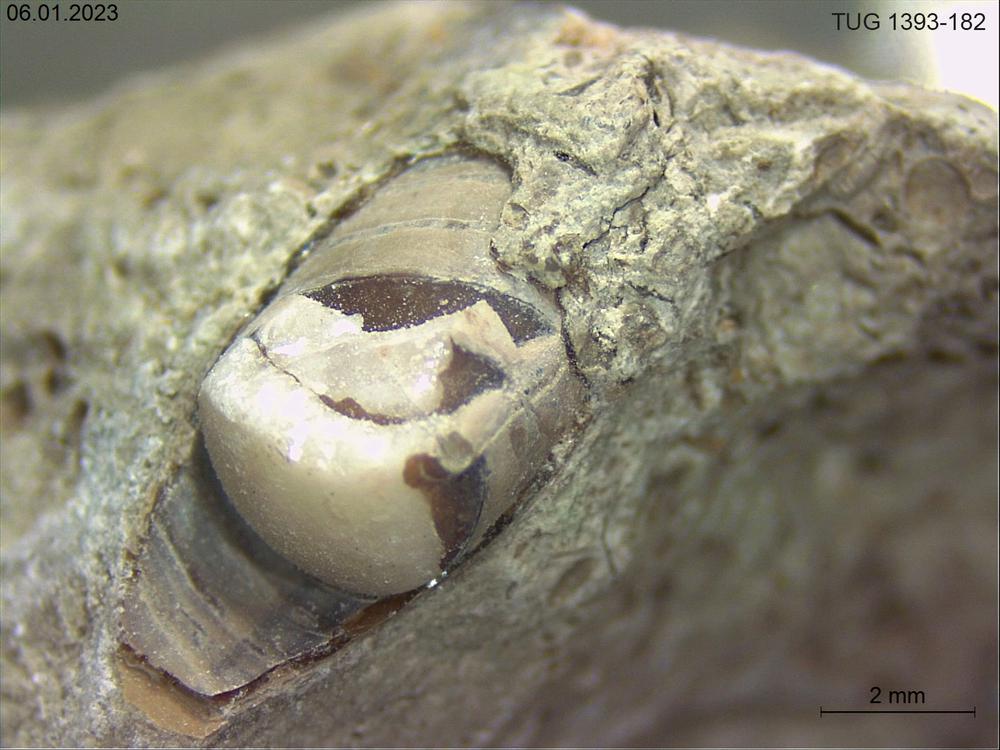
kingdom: Animalia
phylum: Mollusca
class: Cephalopoda
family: Discosoridae
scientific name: Discosoridae
